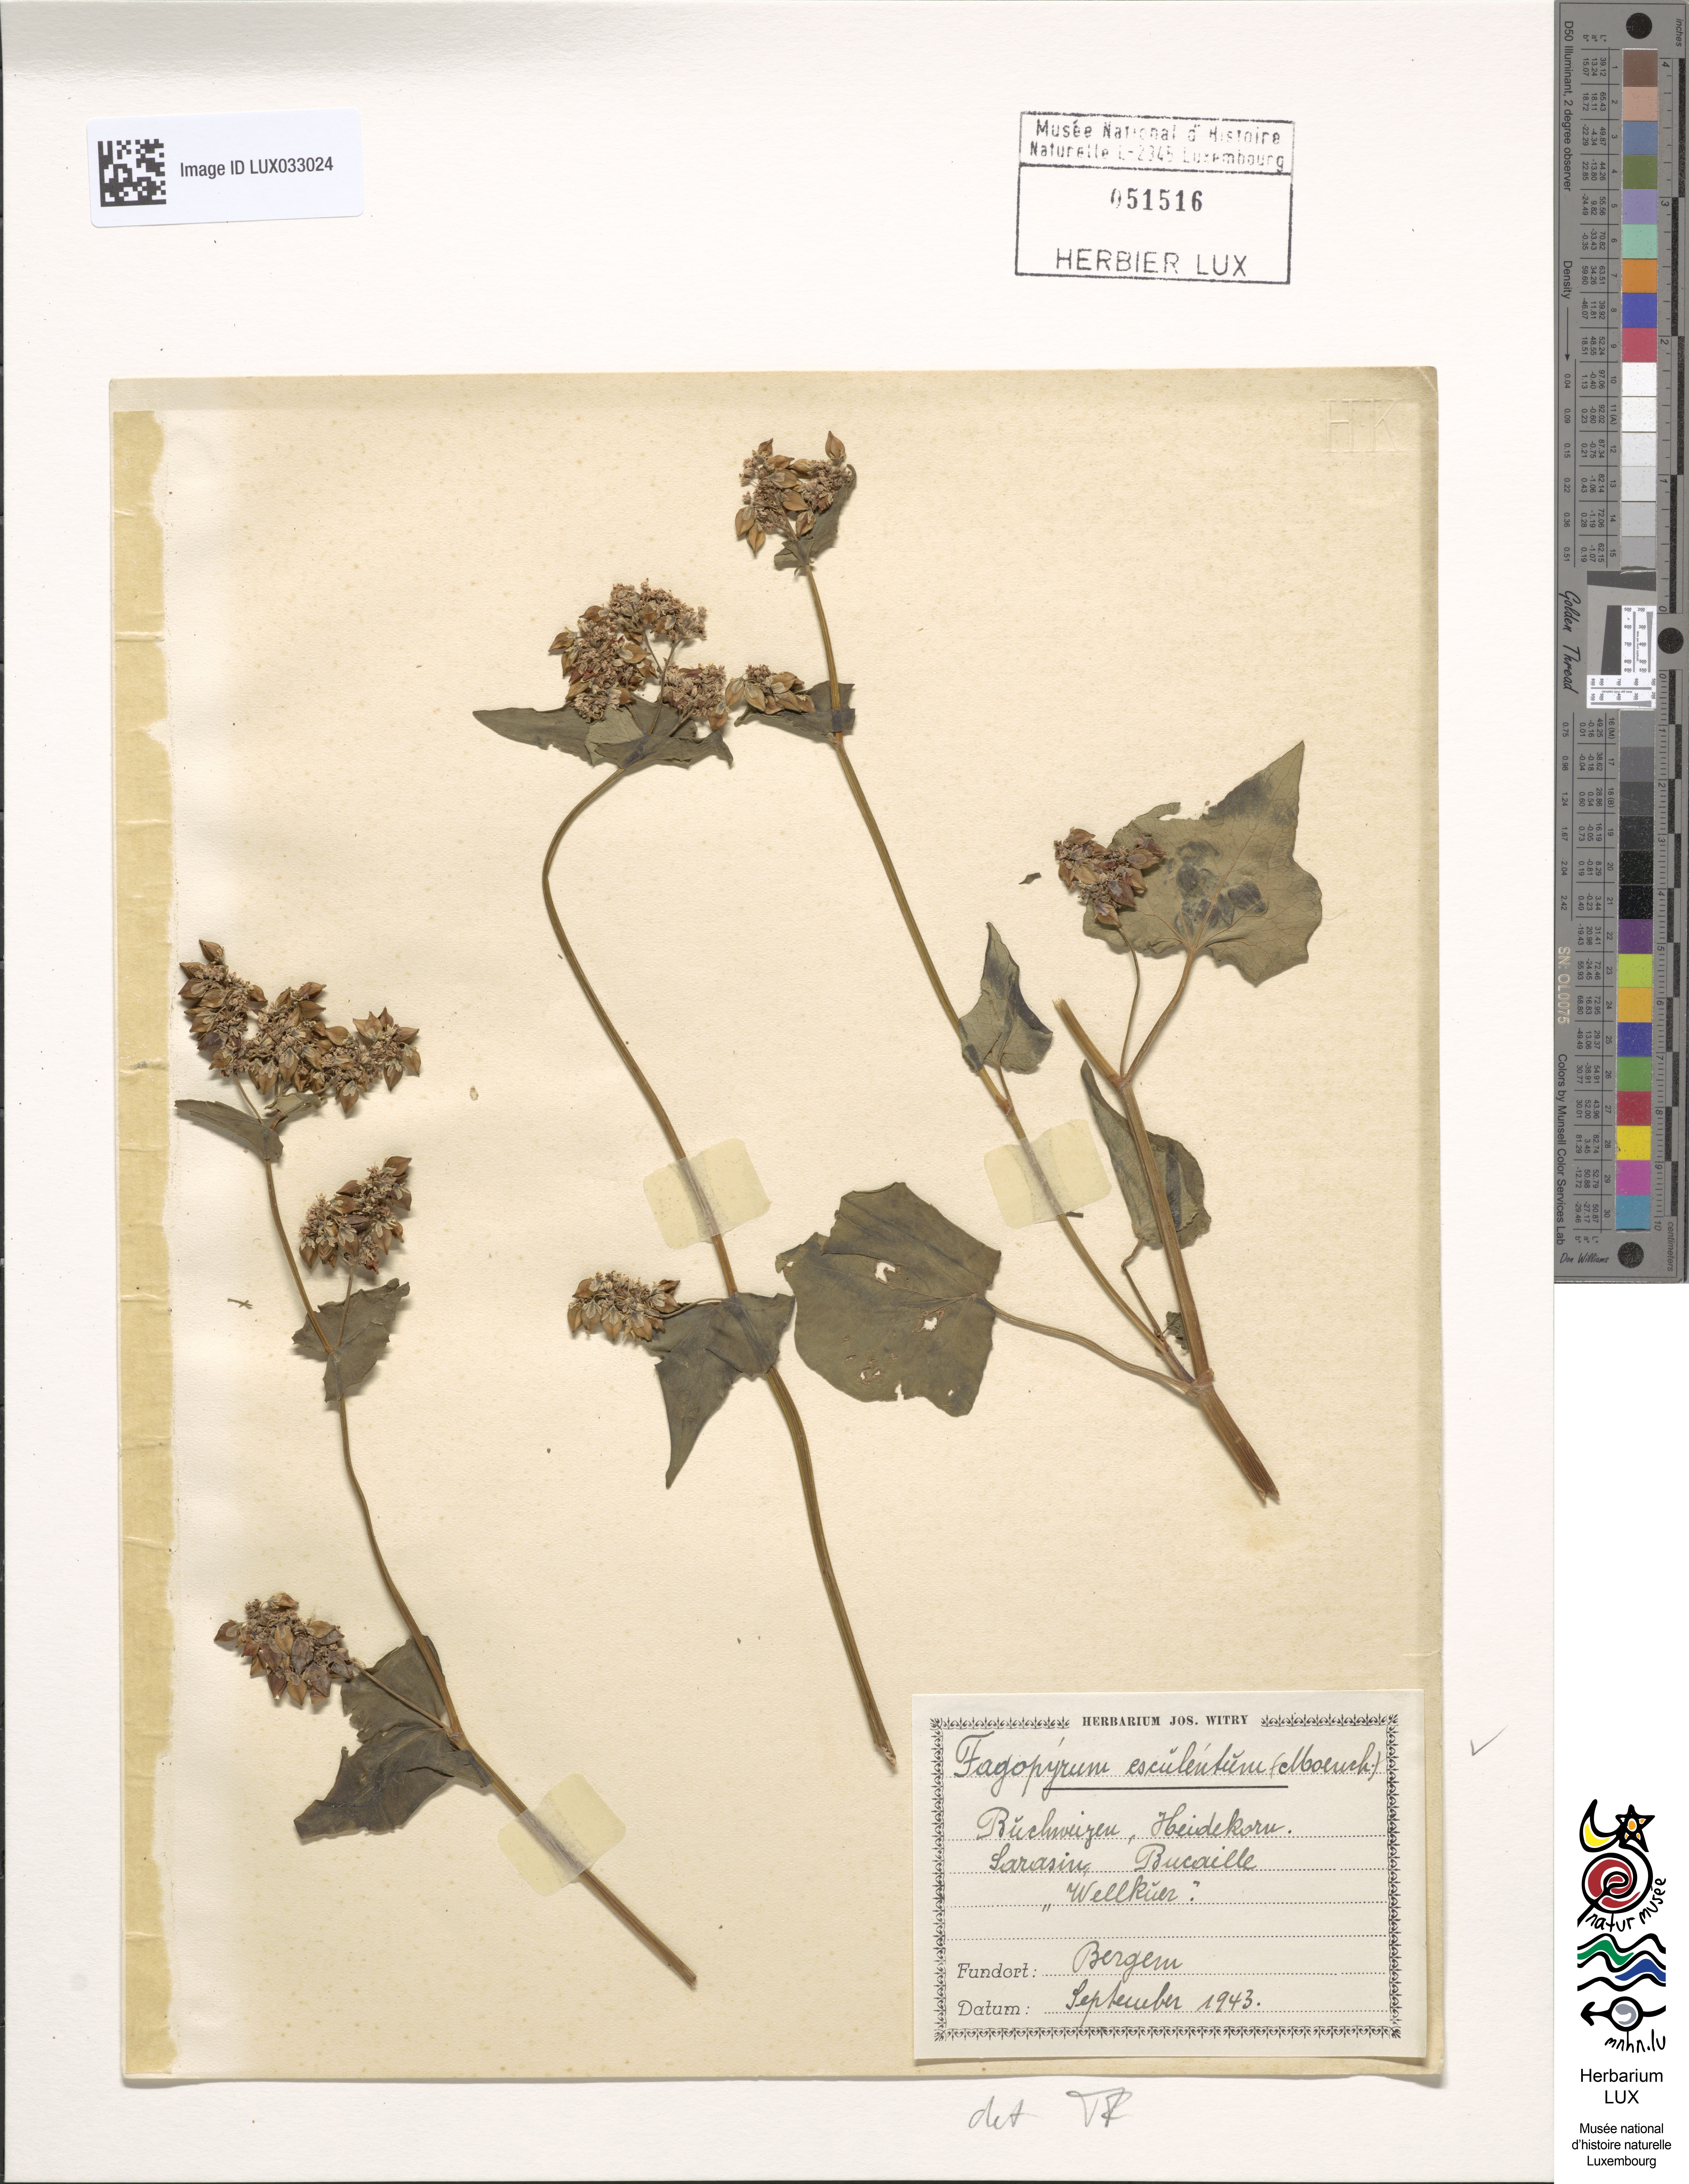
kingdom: Plantae
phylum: Tracheophyta
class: Magnoliopsida
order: Caryophyllales
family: Polygonaceae
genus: Fagopyrum
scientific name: Fagopyrum esculentum
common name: Buckwheat
